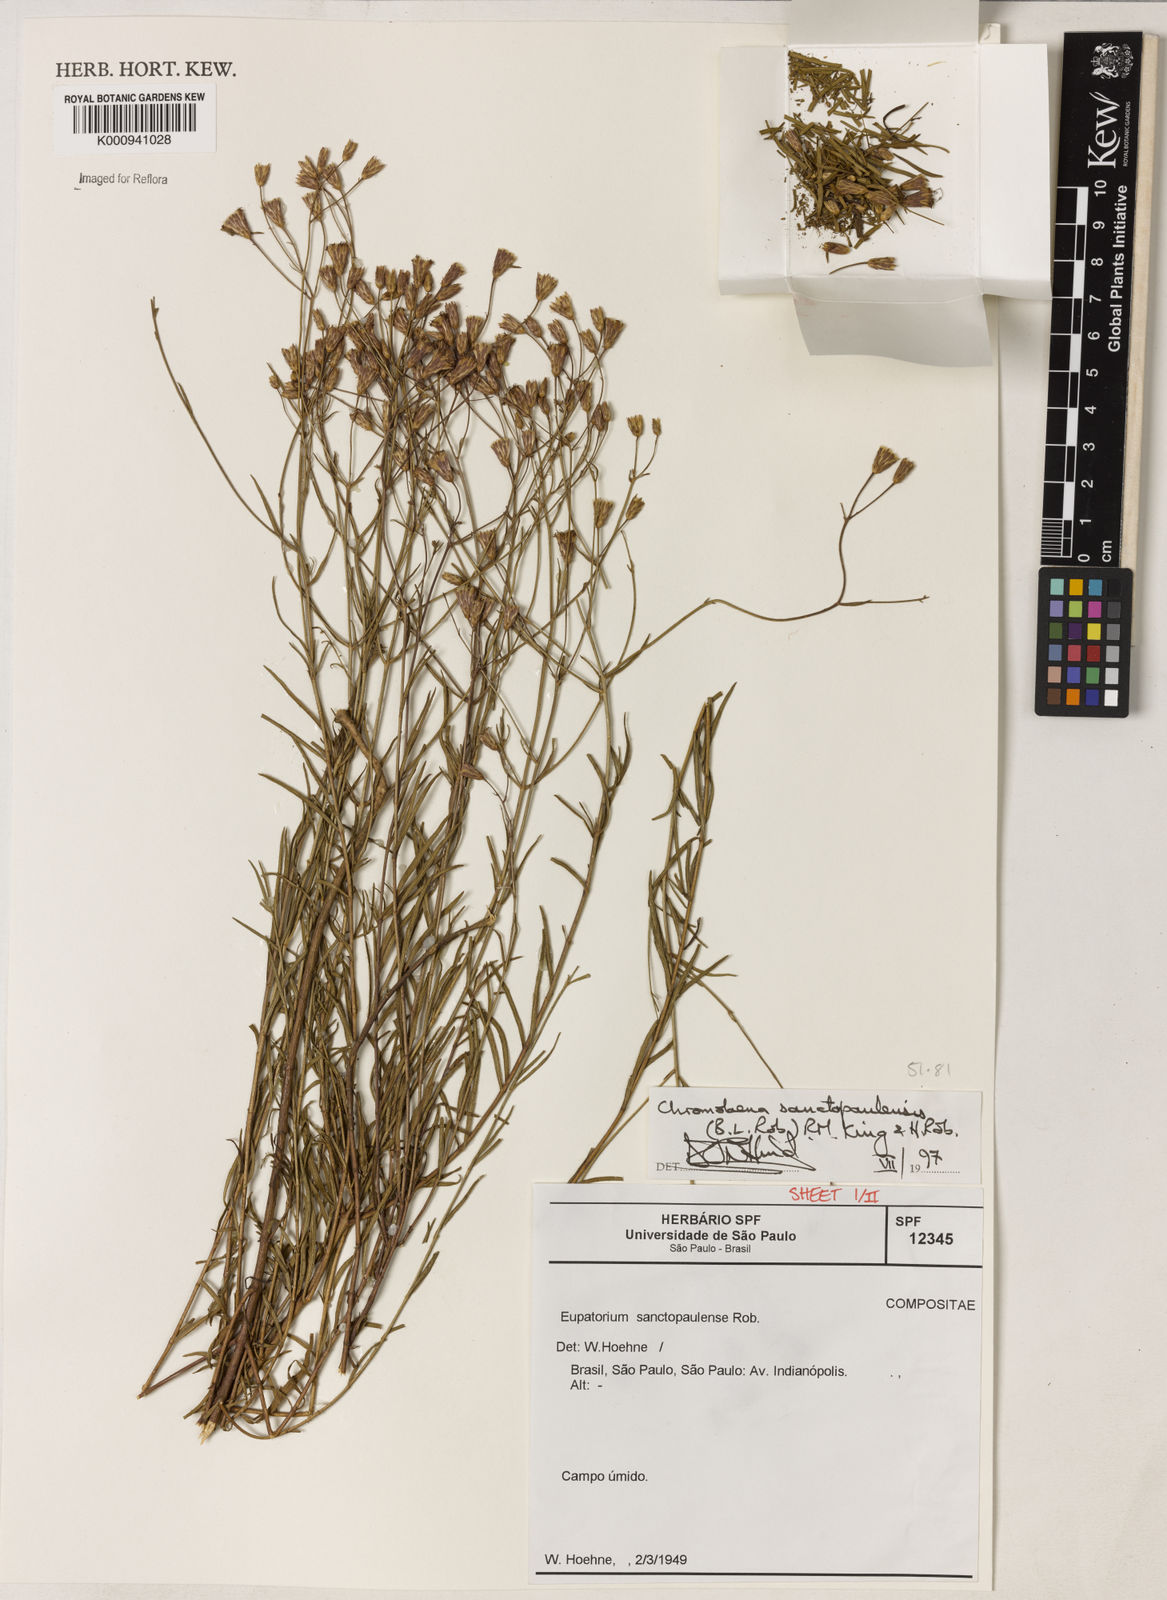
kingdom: Plantae
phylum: Tracheophyta
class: Magnoliopsida
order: Asterales
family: Asteraceae
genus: Chromolaena
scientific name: Chromolaena
